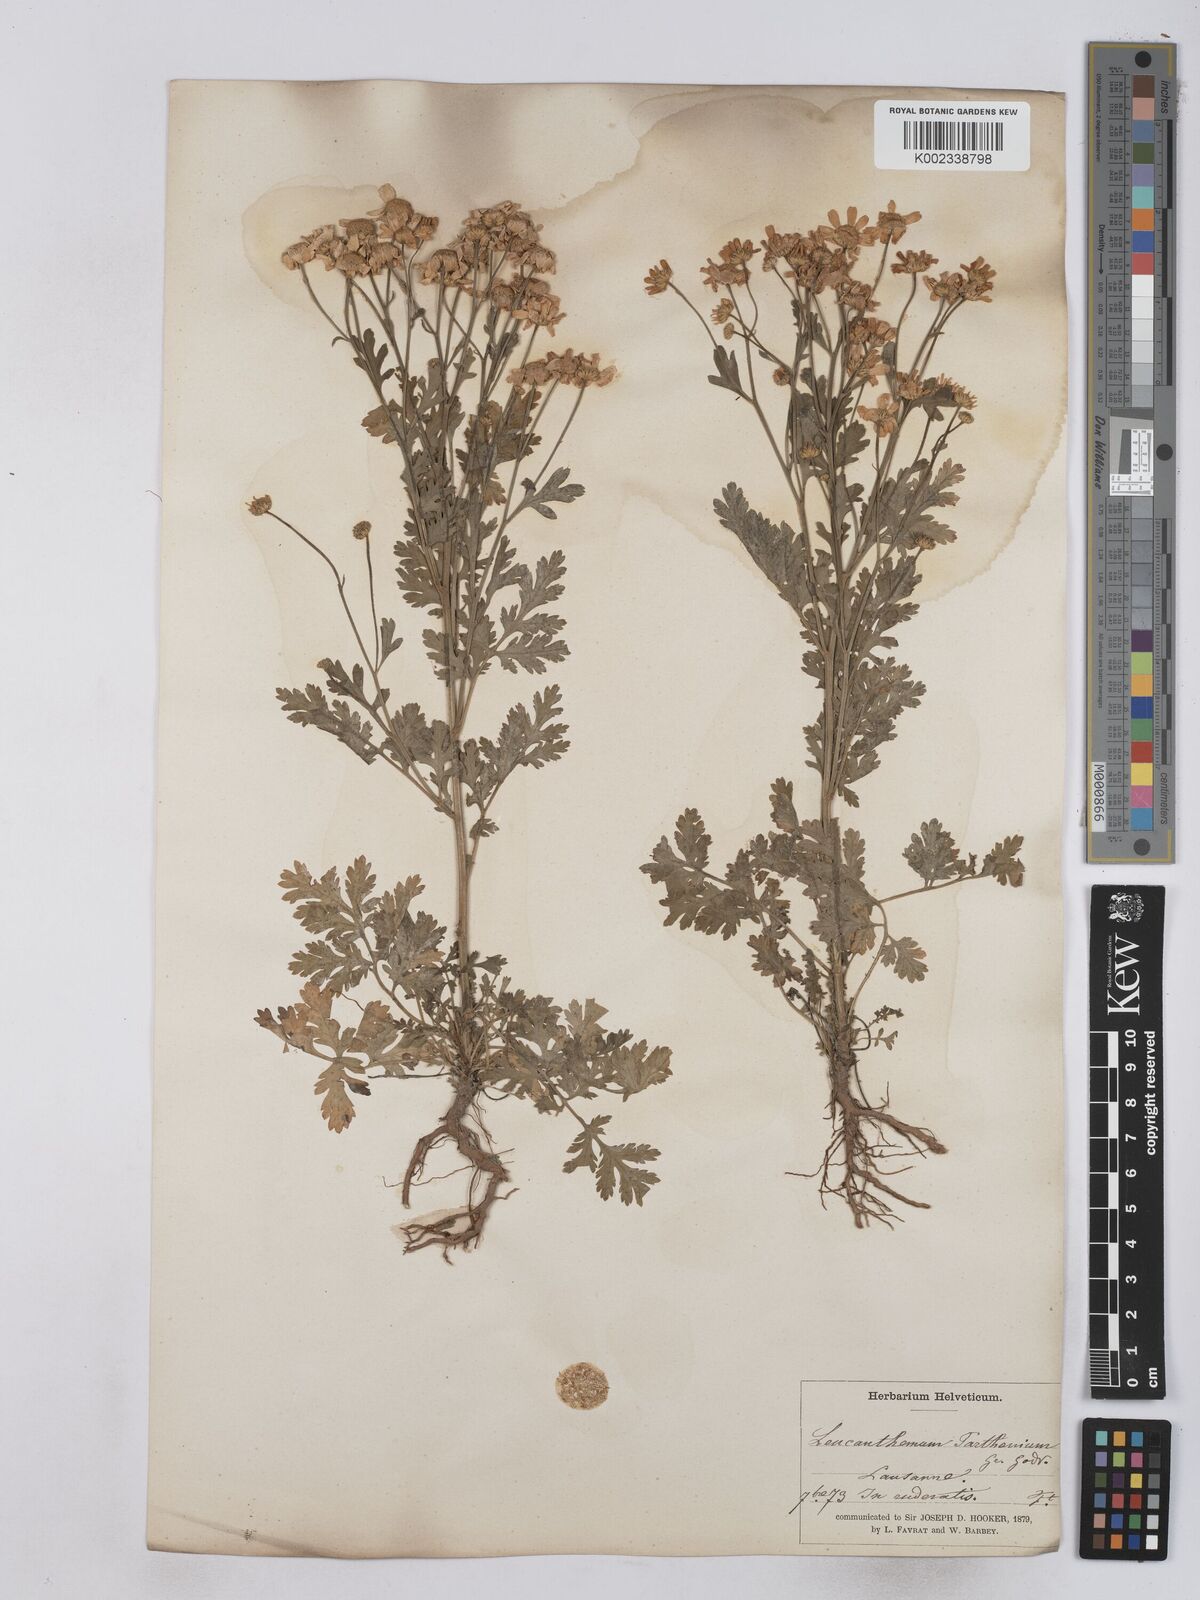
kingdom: Plantae
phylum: Tracheophyta
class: Magnoliopsida
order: Asterales
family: Asteraceae
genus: Tanacetum
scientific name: Tanacetum parthenium
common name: Feverfew
